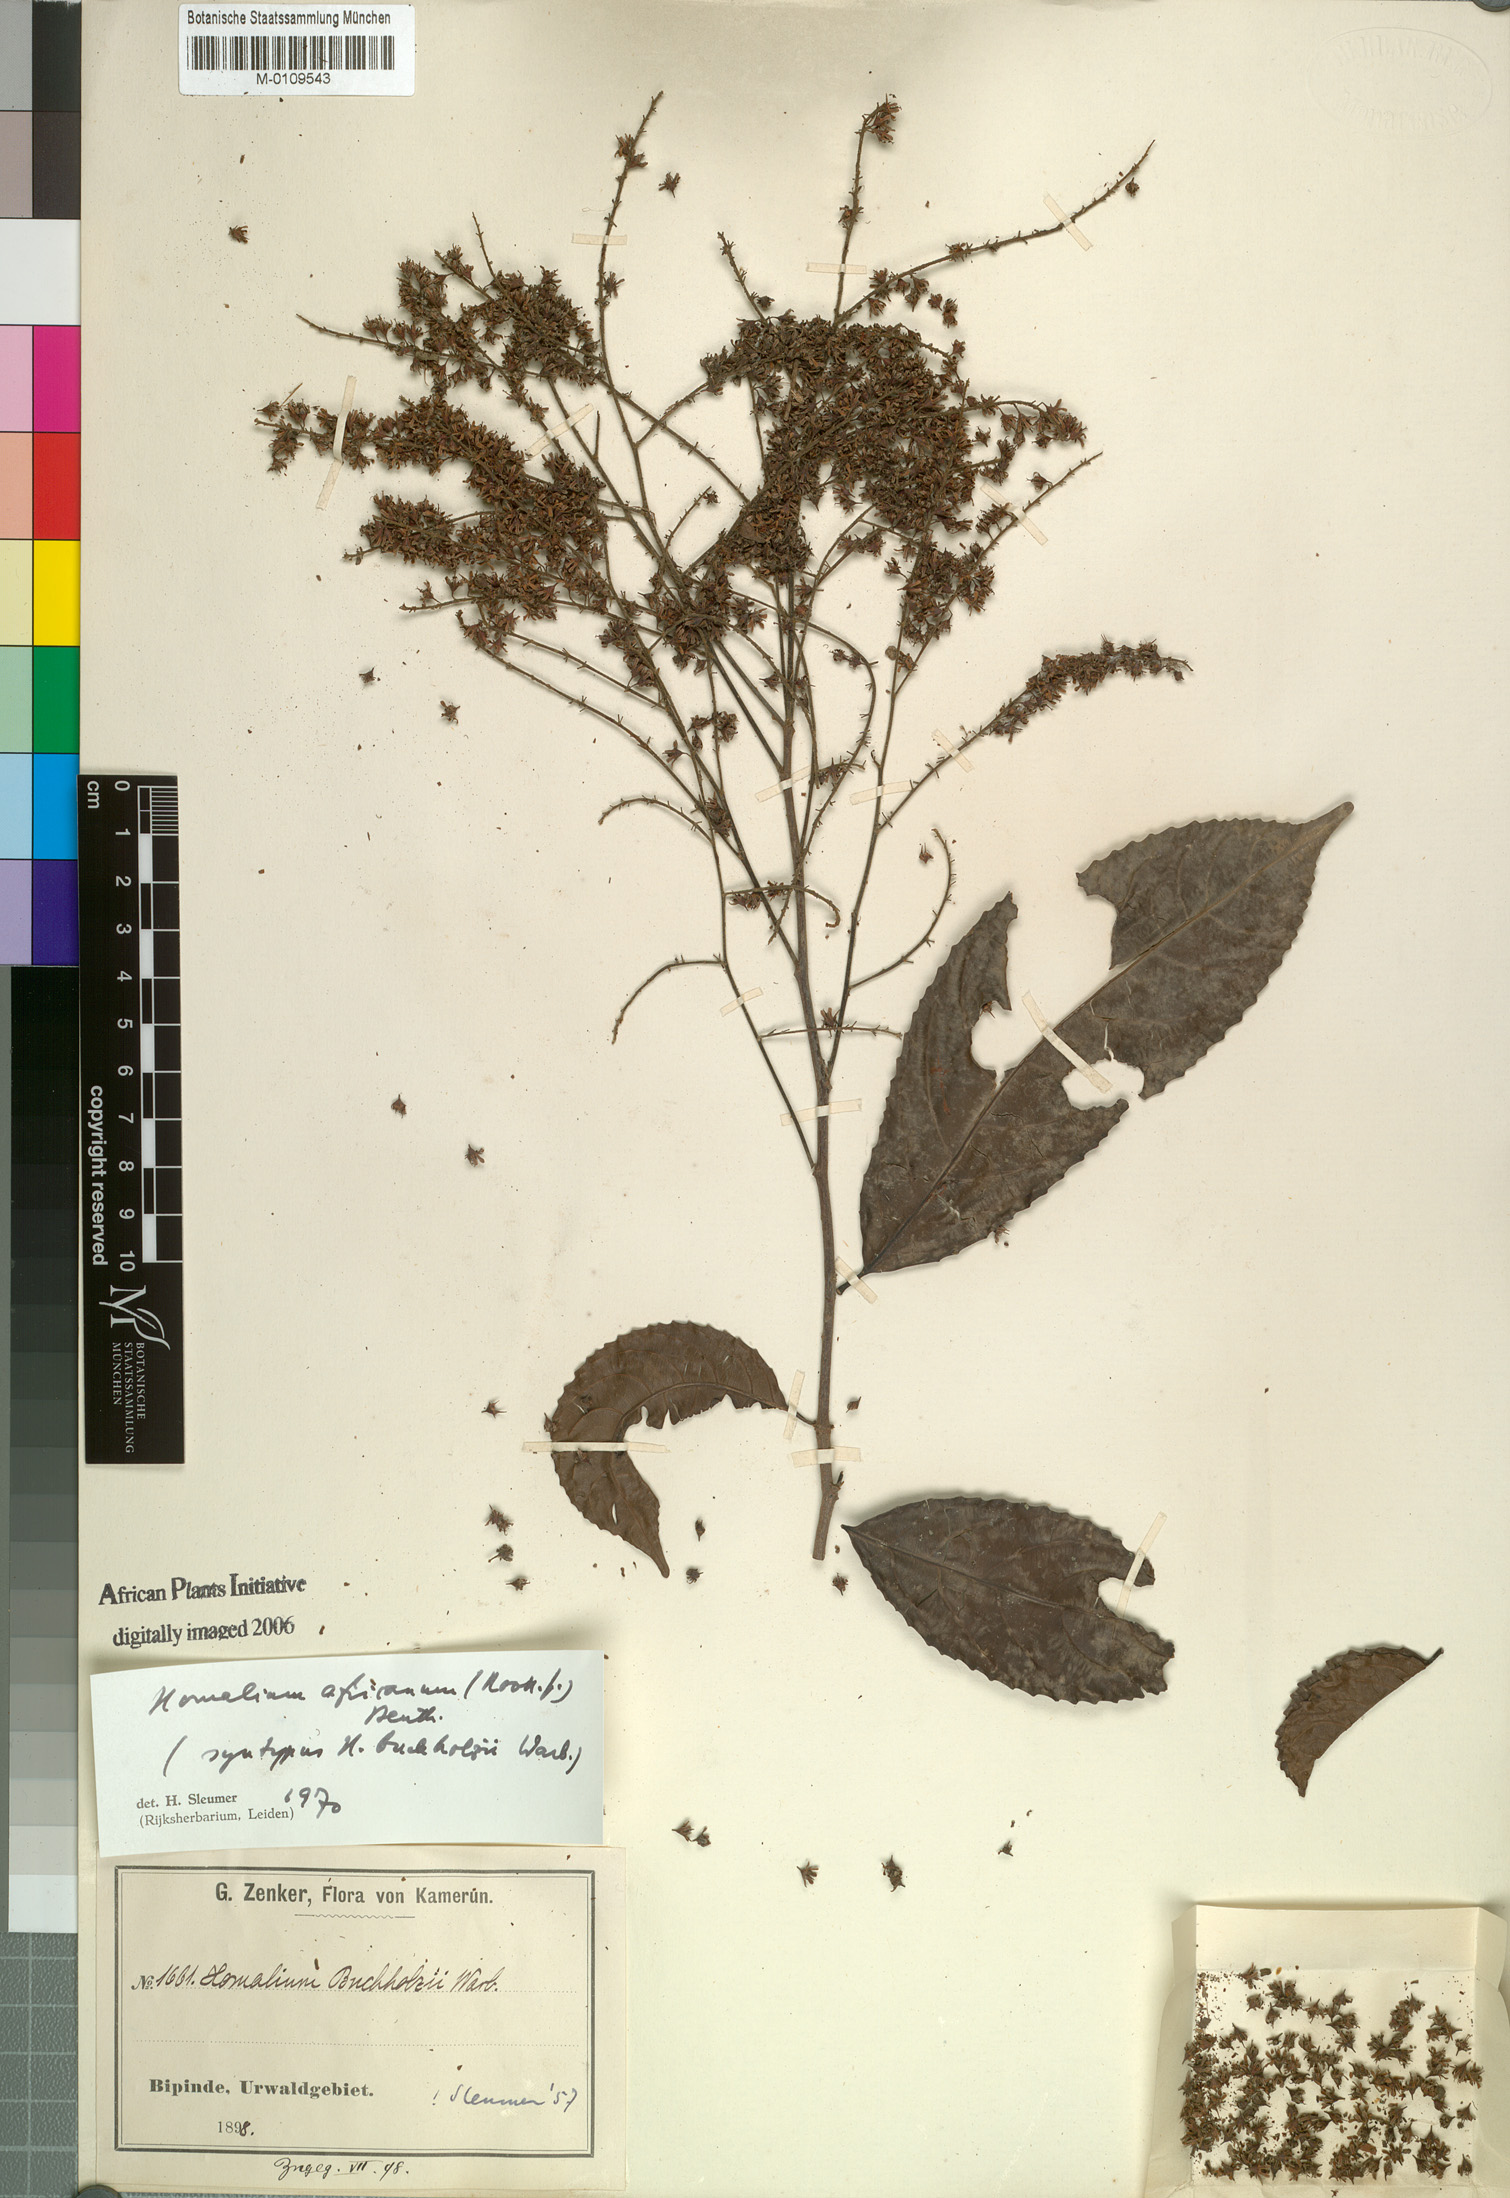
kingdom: Plantae
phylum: Tracheophyta
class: Magnoliopsida
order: Malpighiales
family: Salicaceae
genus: Homalium
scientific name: Homalium africanum
